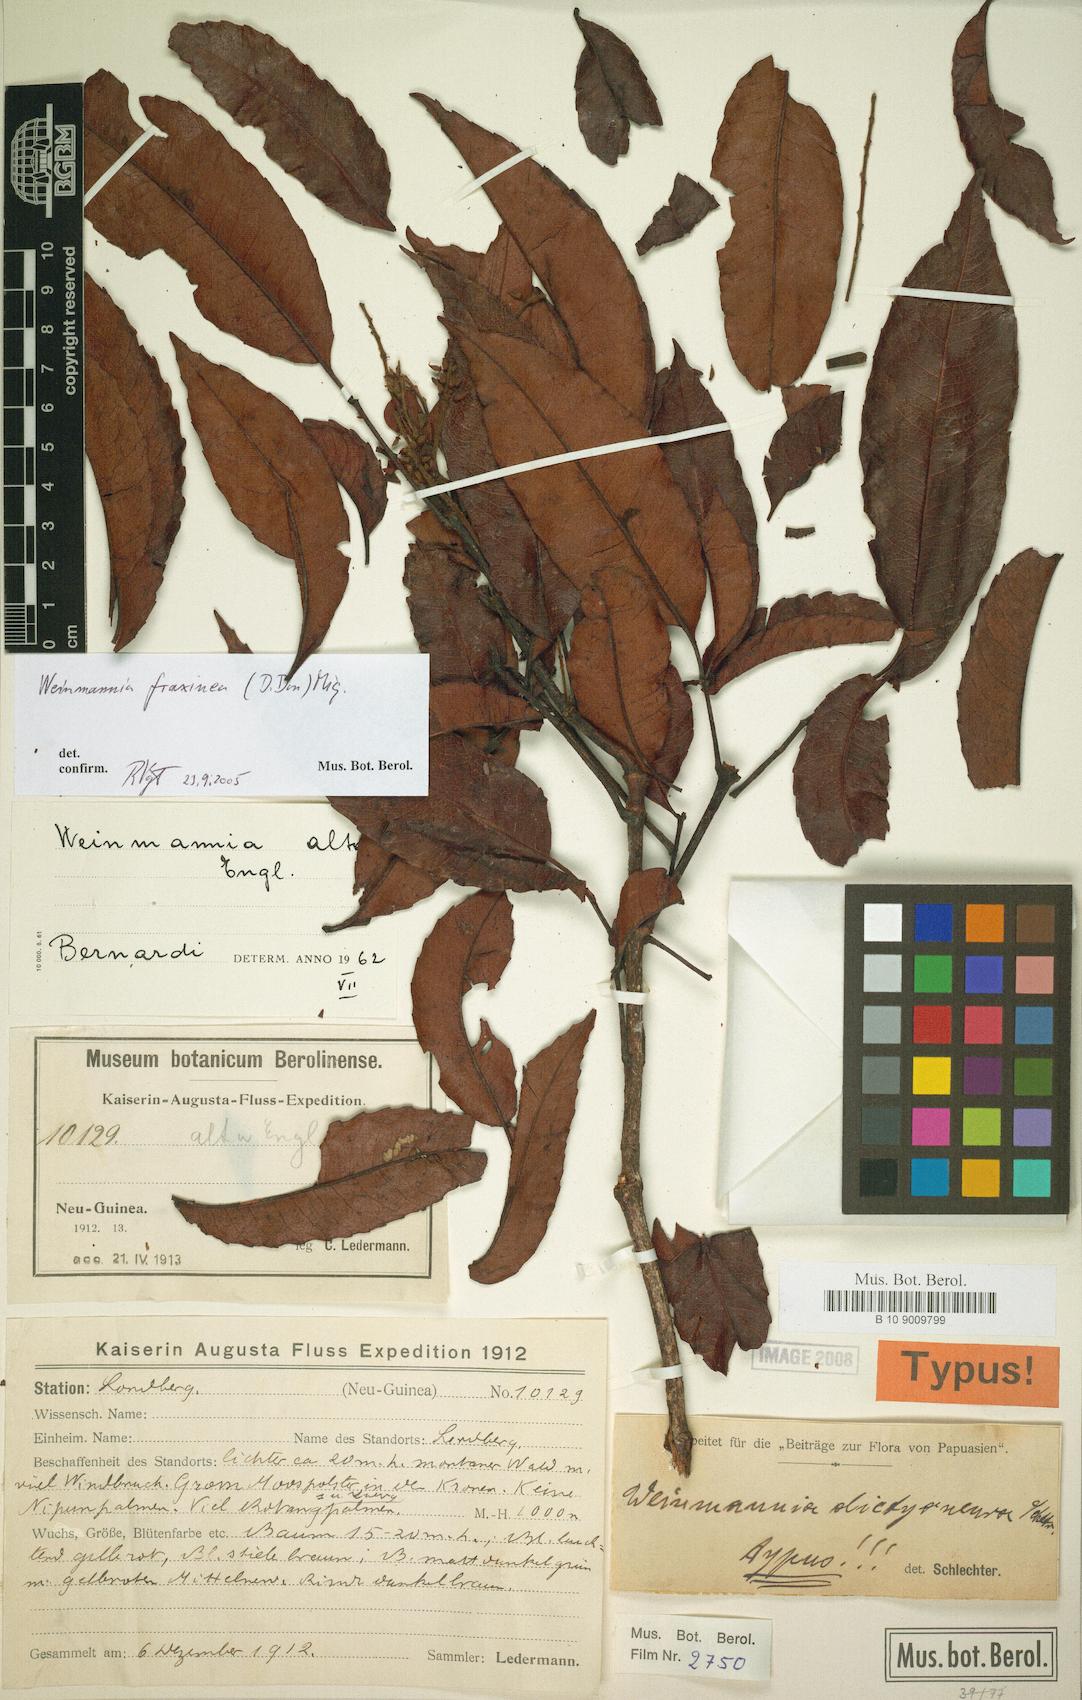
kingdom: Plantae
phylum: Tracheophyta
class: Magnoliopsida
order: Oxalidales
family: Cunoniaceae
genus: Pterophylla
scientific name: Pterophylla fraxinea
